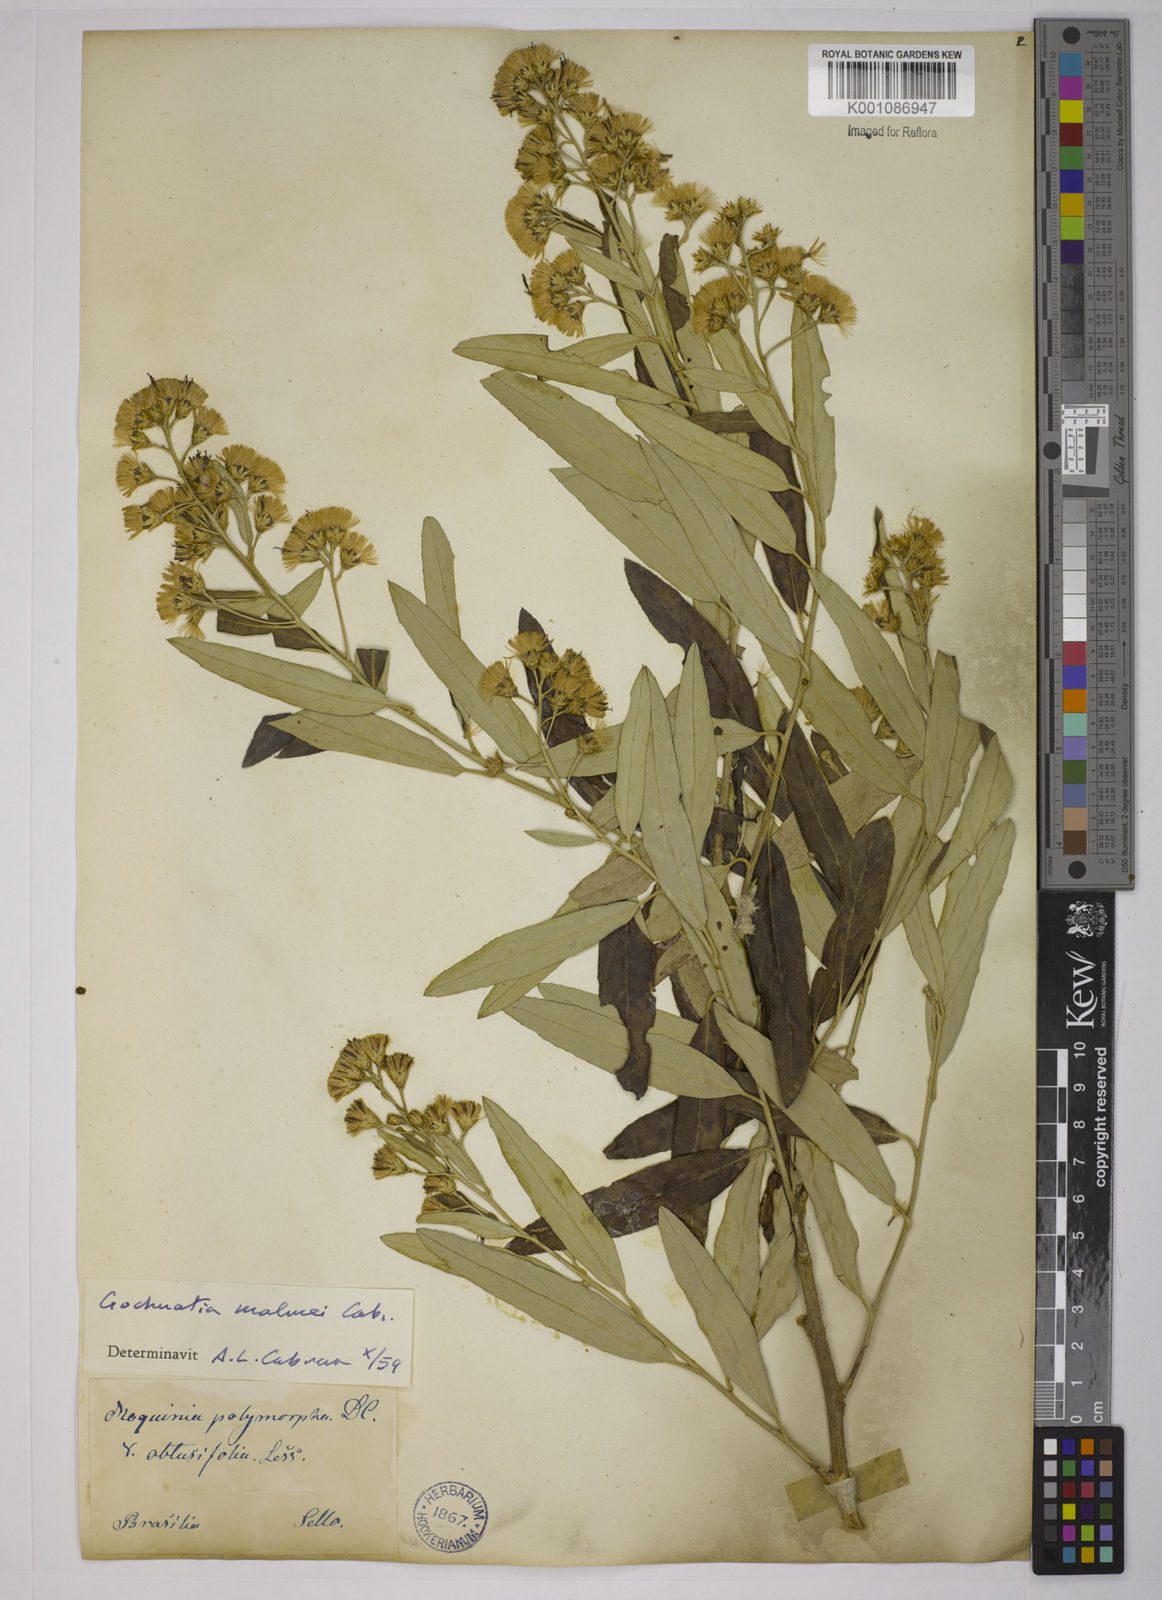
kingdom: Plantae
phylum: Tracheophyta
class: Magnoliopsida
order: Asterales
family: Asteraceae
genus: Moquiniastrum
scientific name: Moquiniastrum polymorphum
